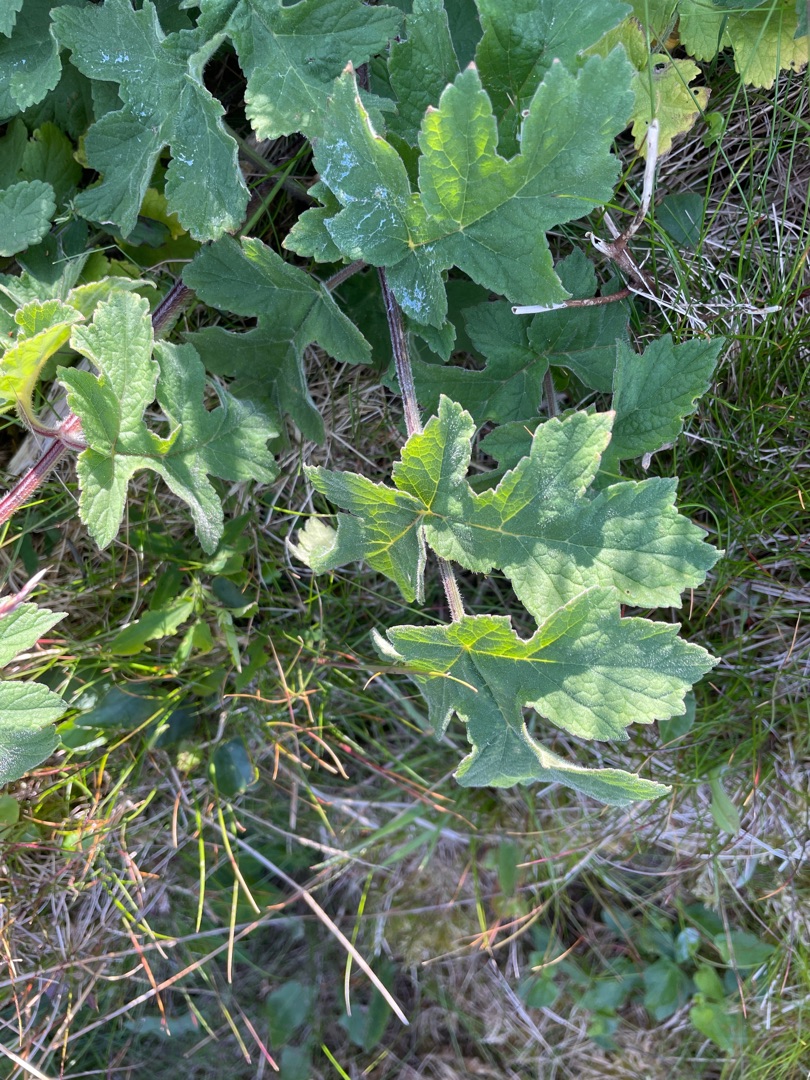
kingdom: Plantae
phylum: Tracheophyta
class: Magnoliopsida
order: Apiales
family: Apiaceae
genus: Heracleum
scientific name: Heracleum sphondylium
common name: Almindelig bjørneklo
